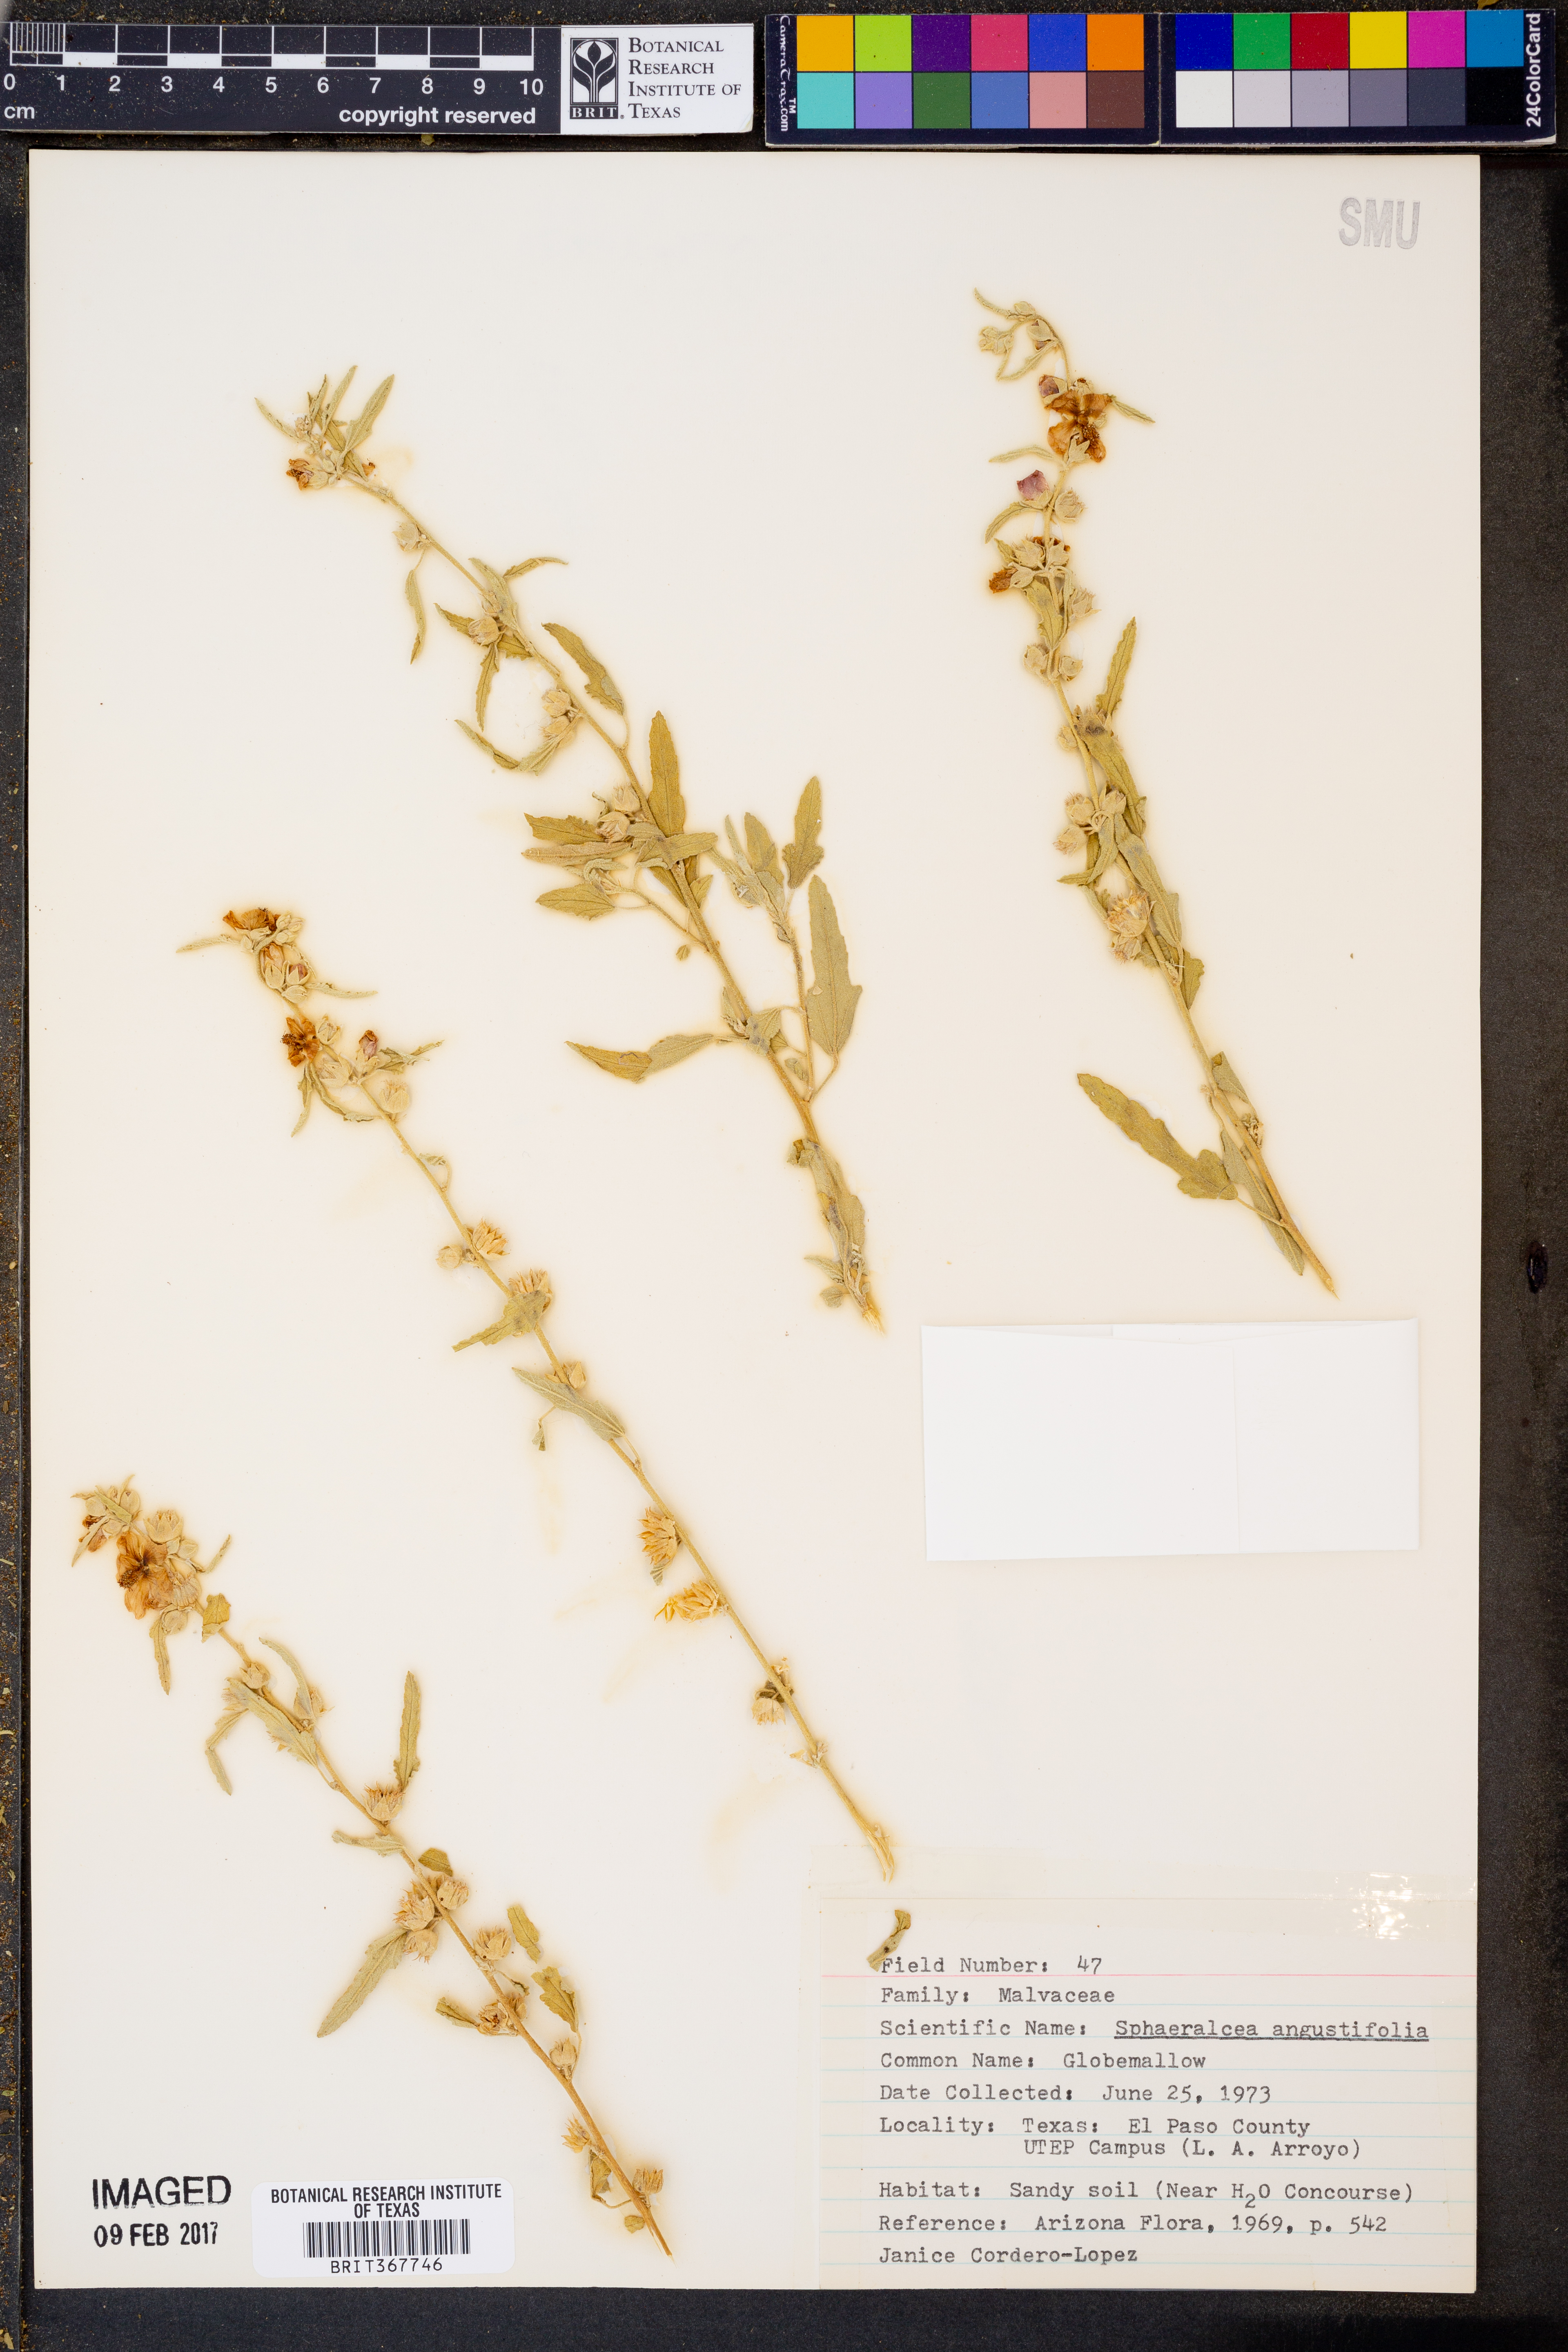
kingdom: Plantae
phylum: Tracheophyta
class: Magnoliopsida
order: Malvales
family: Malvaceae
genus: Sphaeralcea
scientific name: Sphaeralcea angustifolia
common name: Copper globe-mallow
